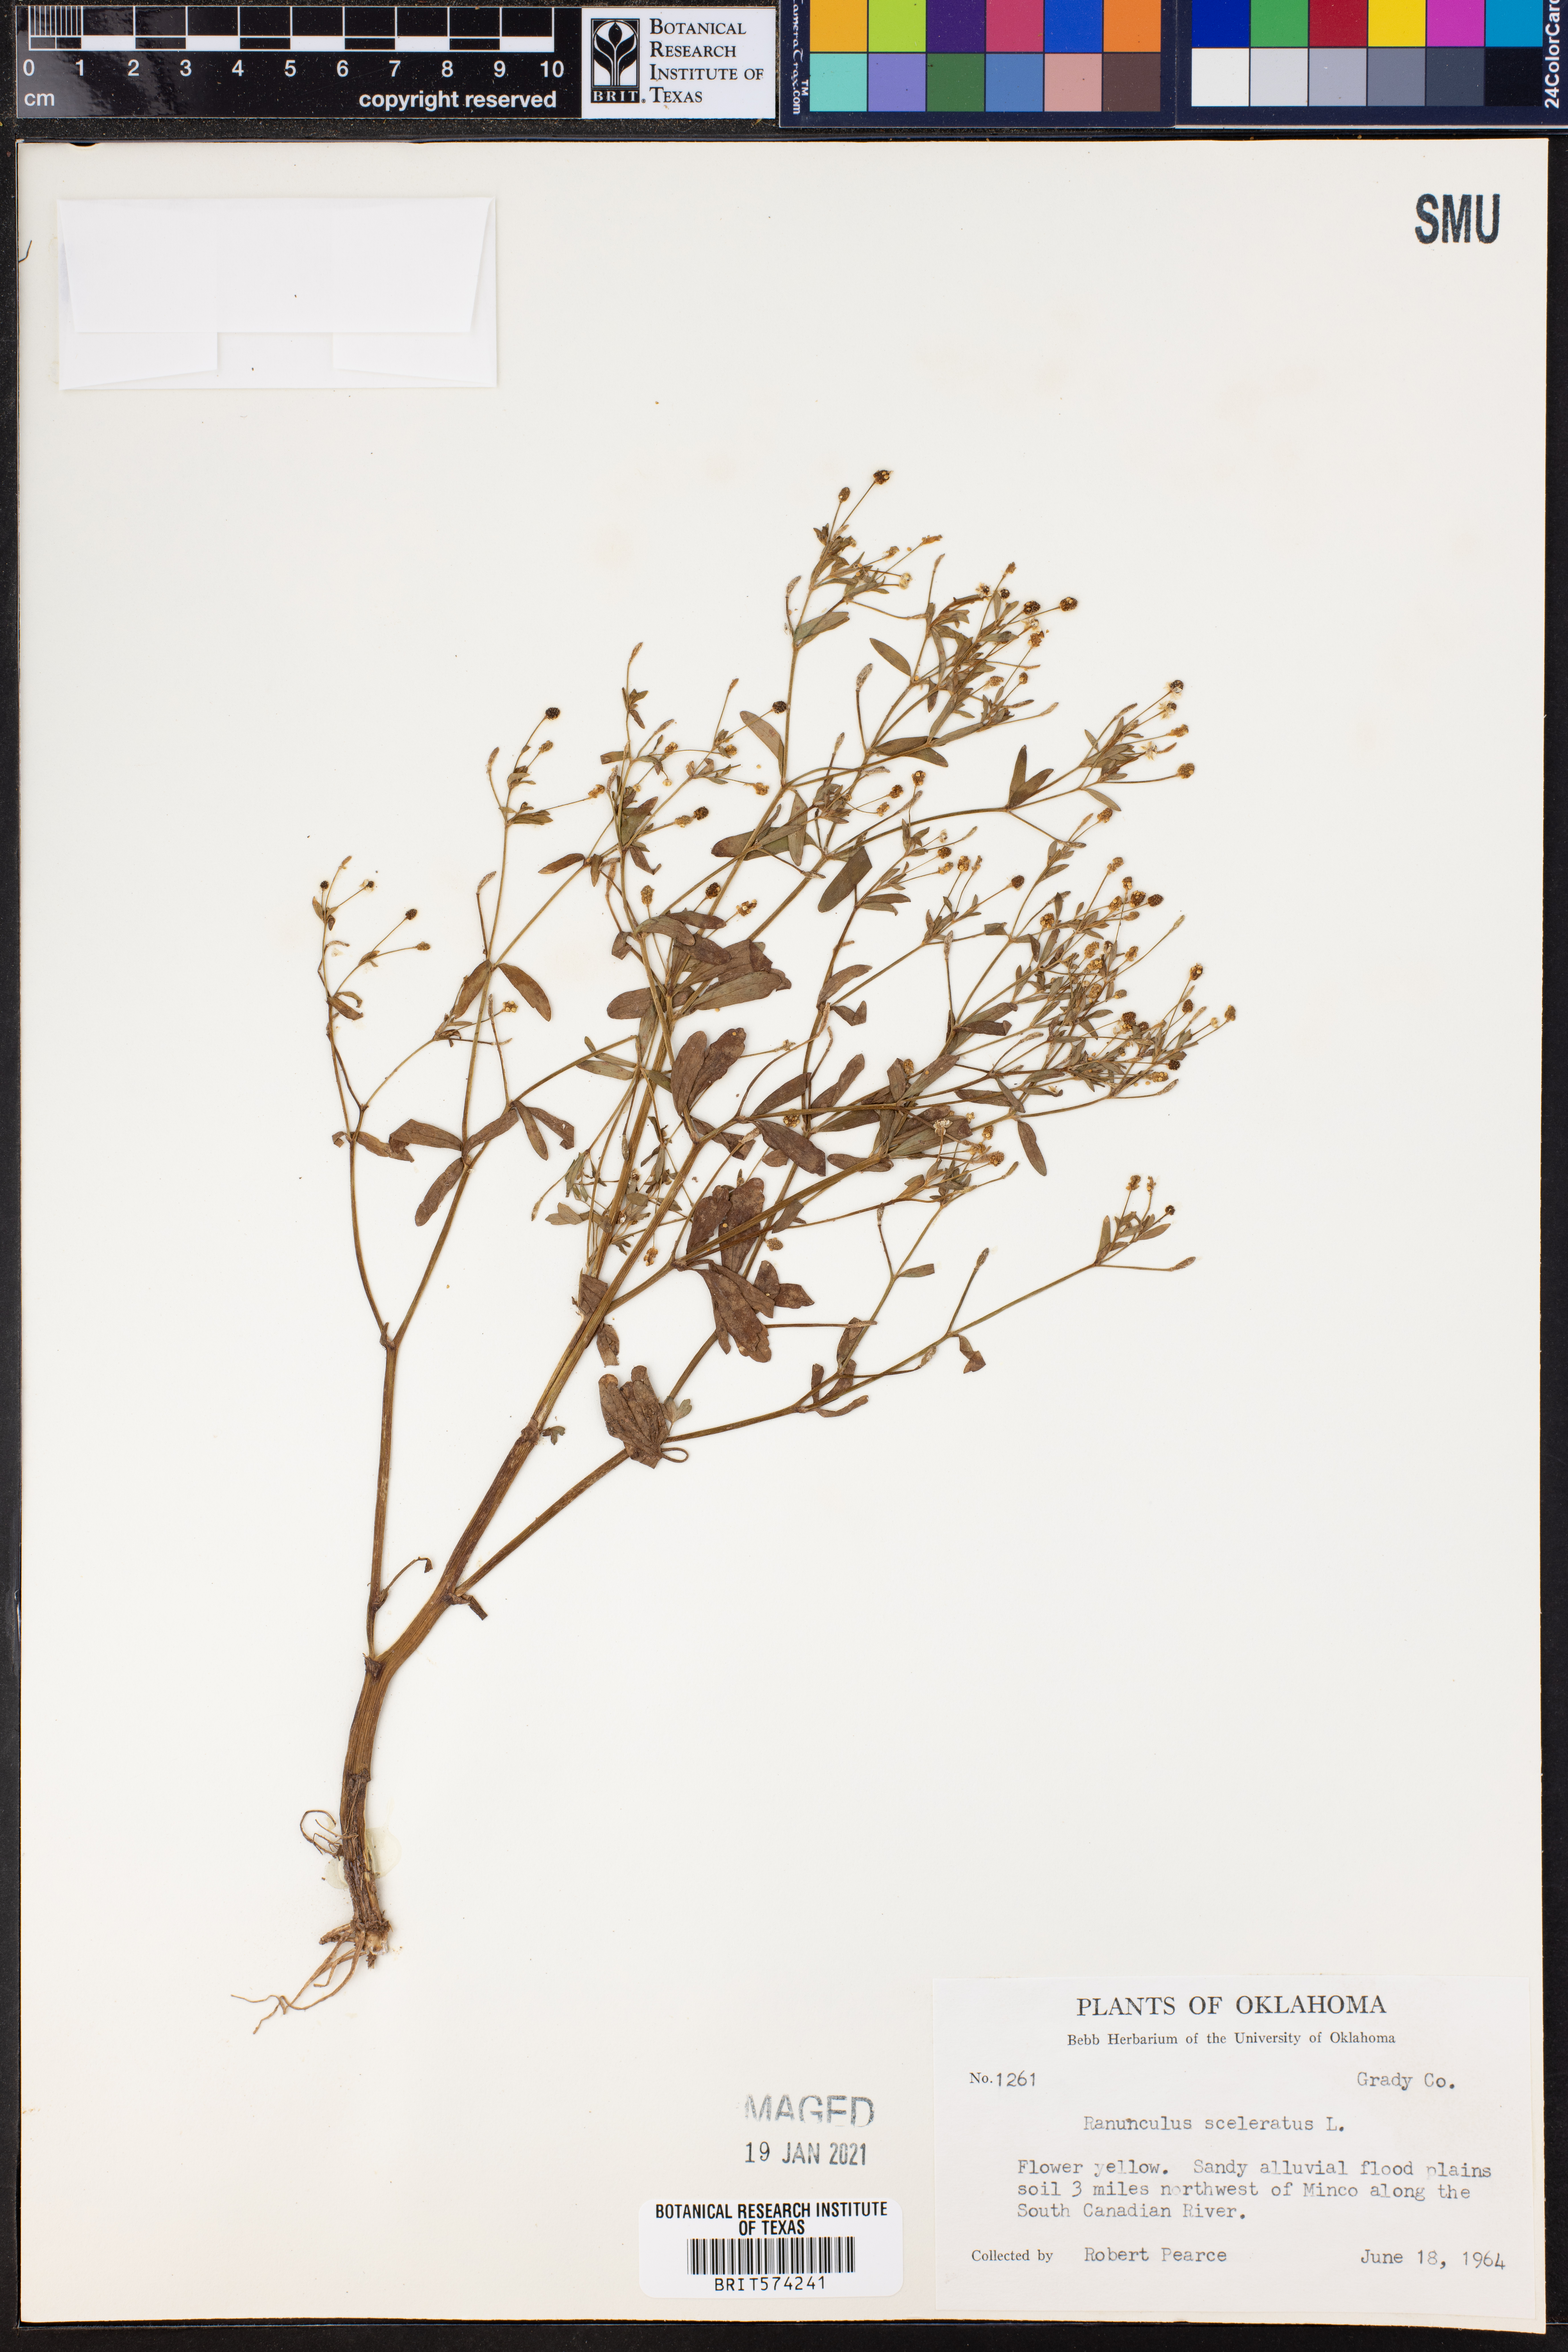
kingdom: Plantae
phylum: Tracheophyta
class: Magnoliopsida
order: Ranunculales
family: Ranunculaceae
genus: Ranunculus
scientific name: Ranunculus sceleratus
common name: Celery-leaved buttercup
